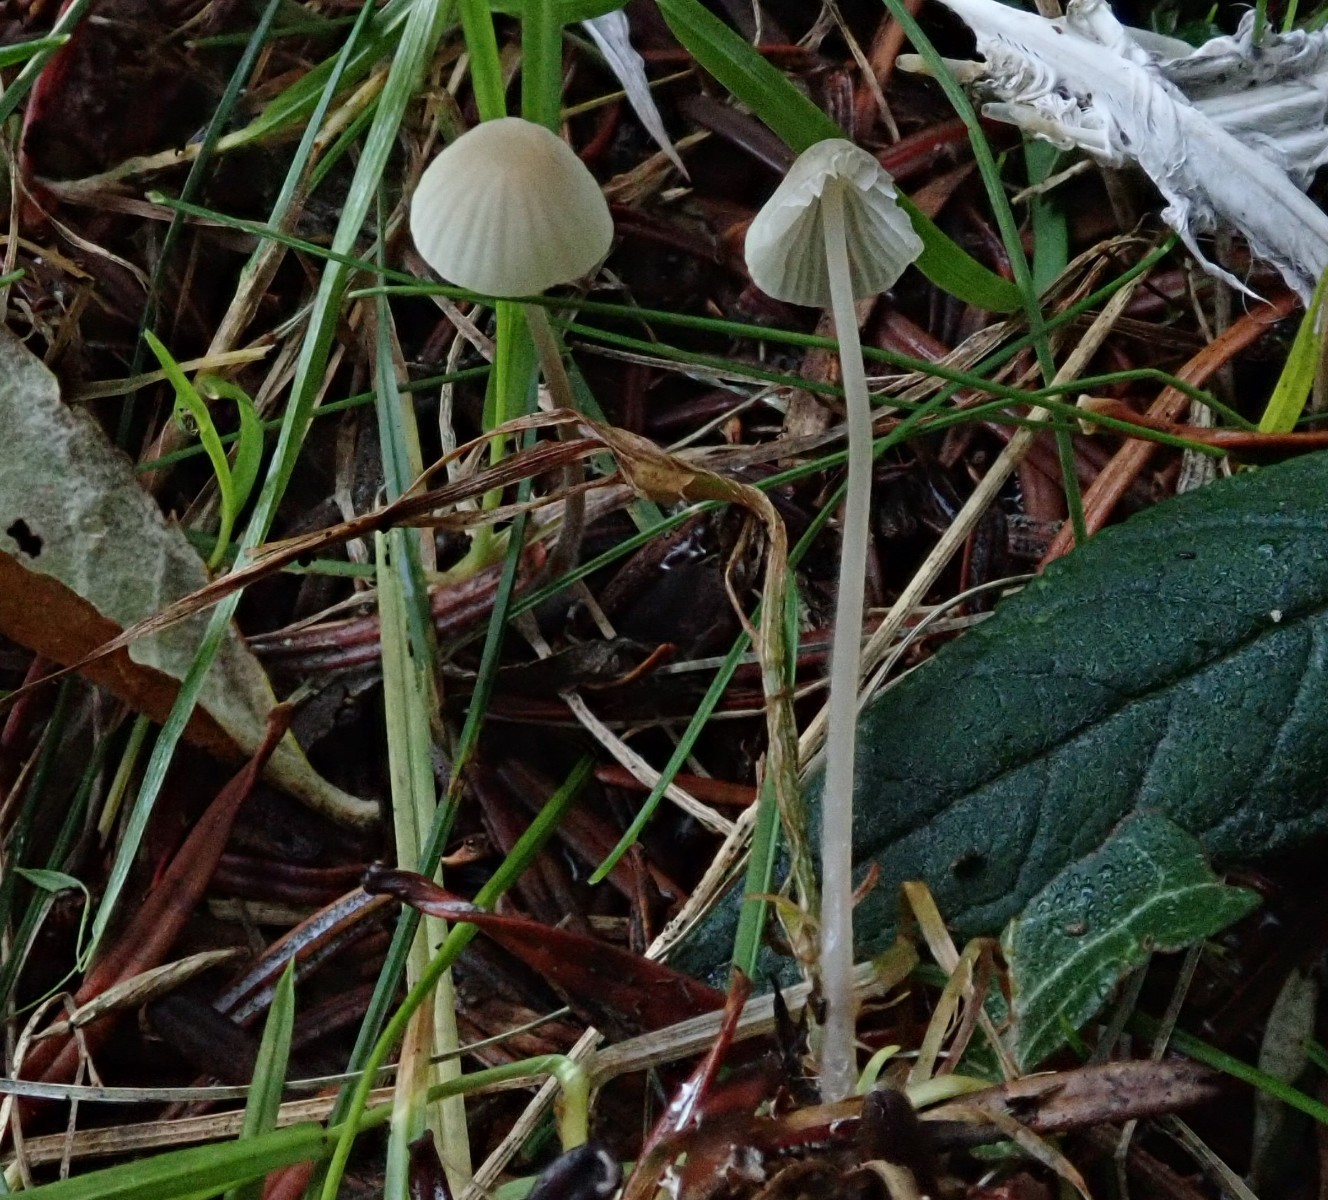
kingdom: Fungi
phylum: Basidiomycota
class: Agaricomycetes
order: Agaricales
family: Mycenaceae
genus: Mycena
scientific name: Mycena
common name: huesvamp
